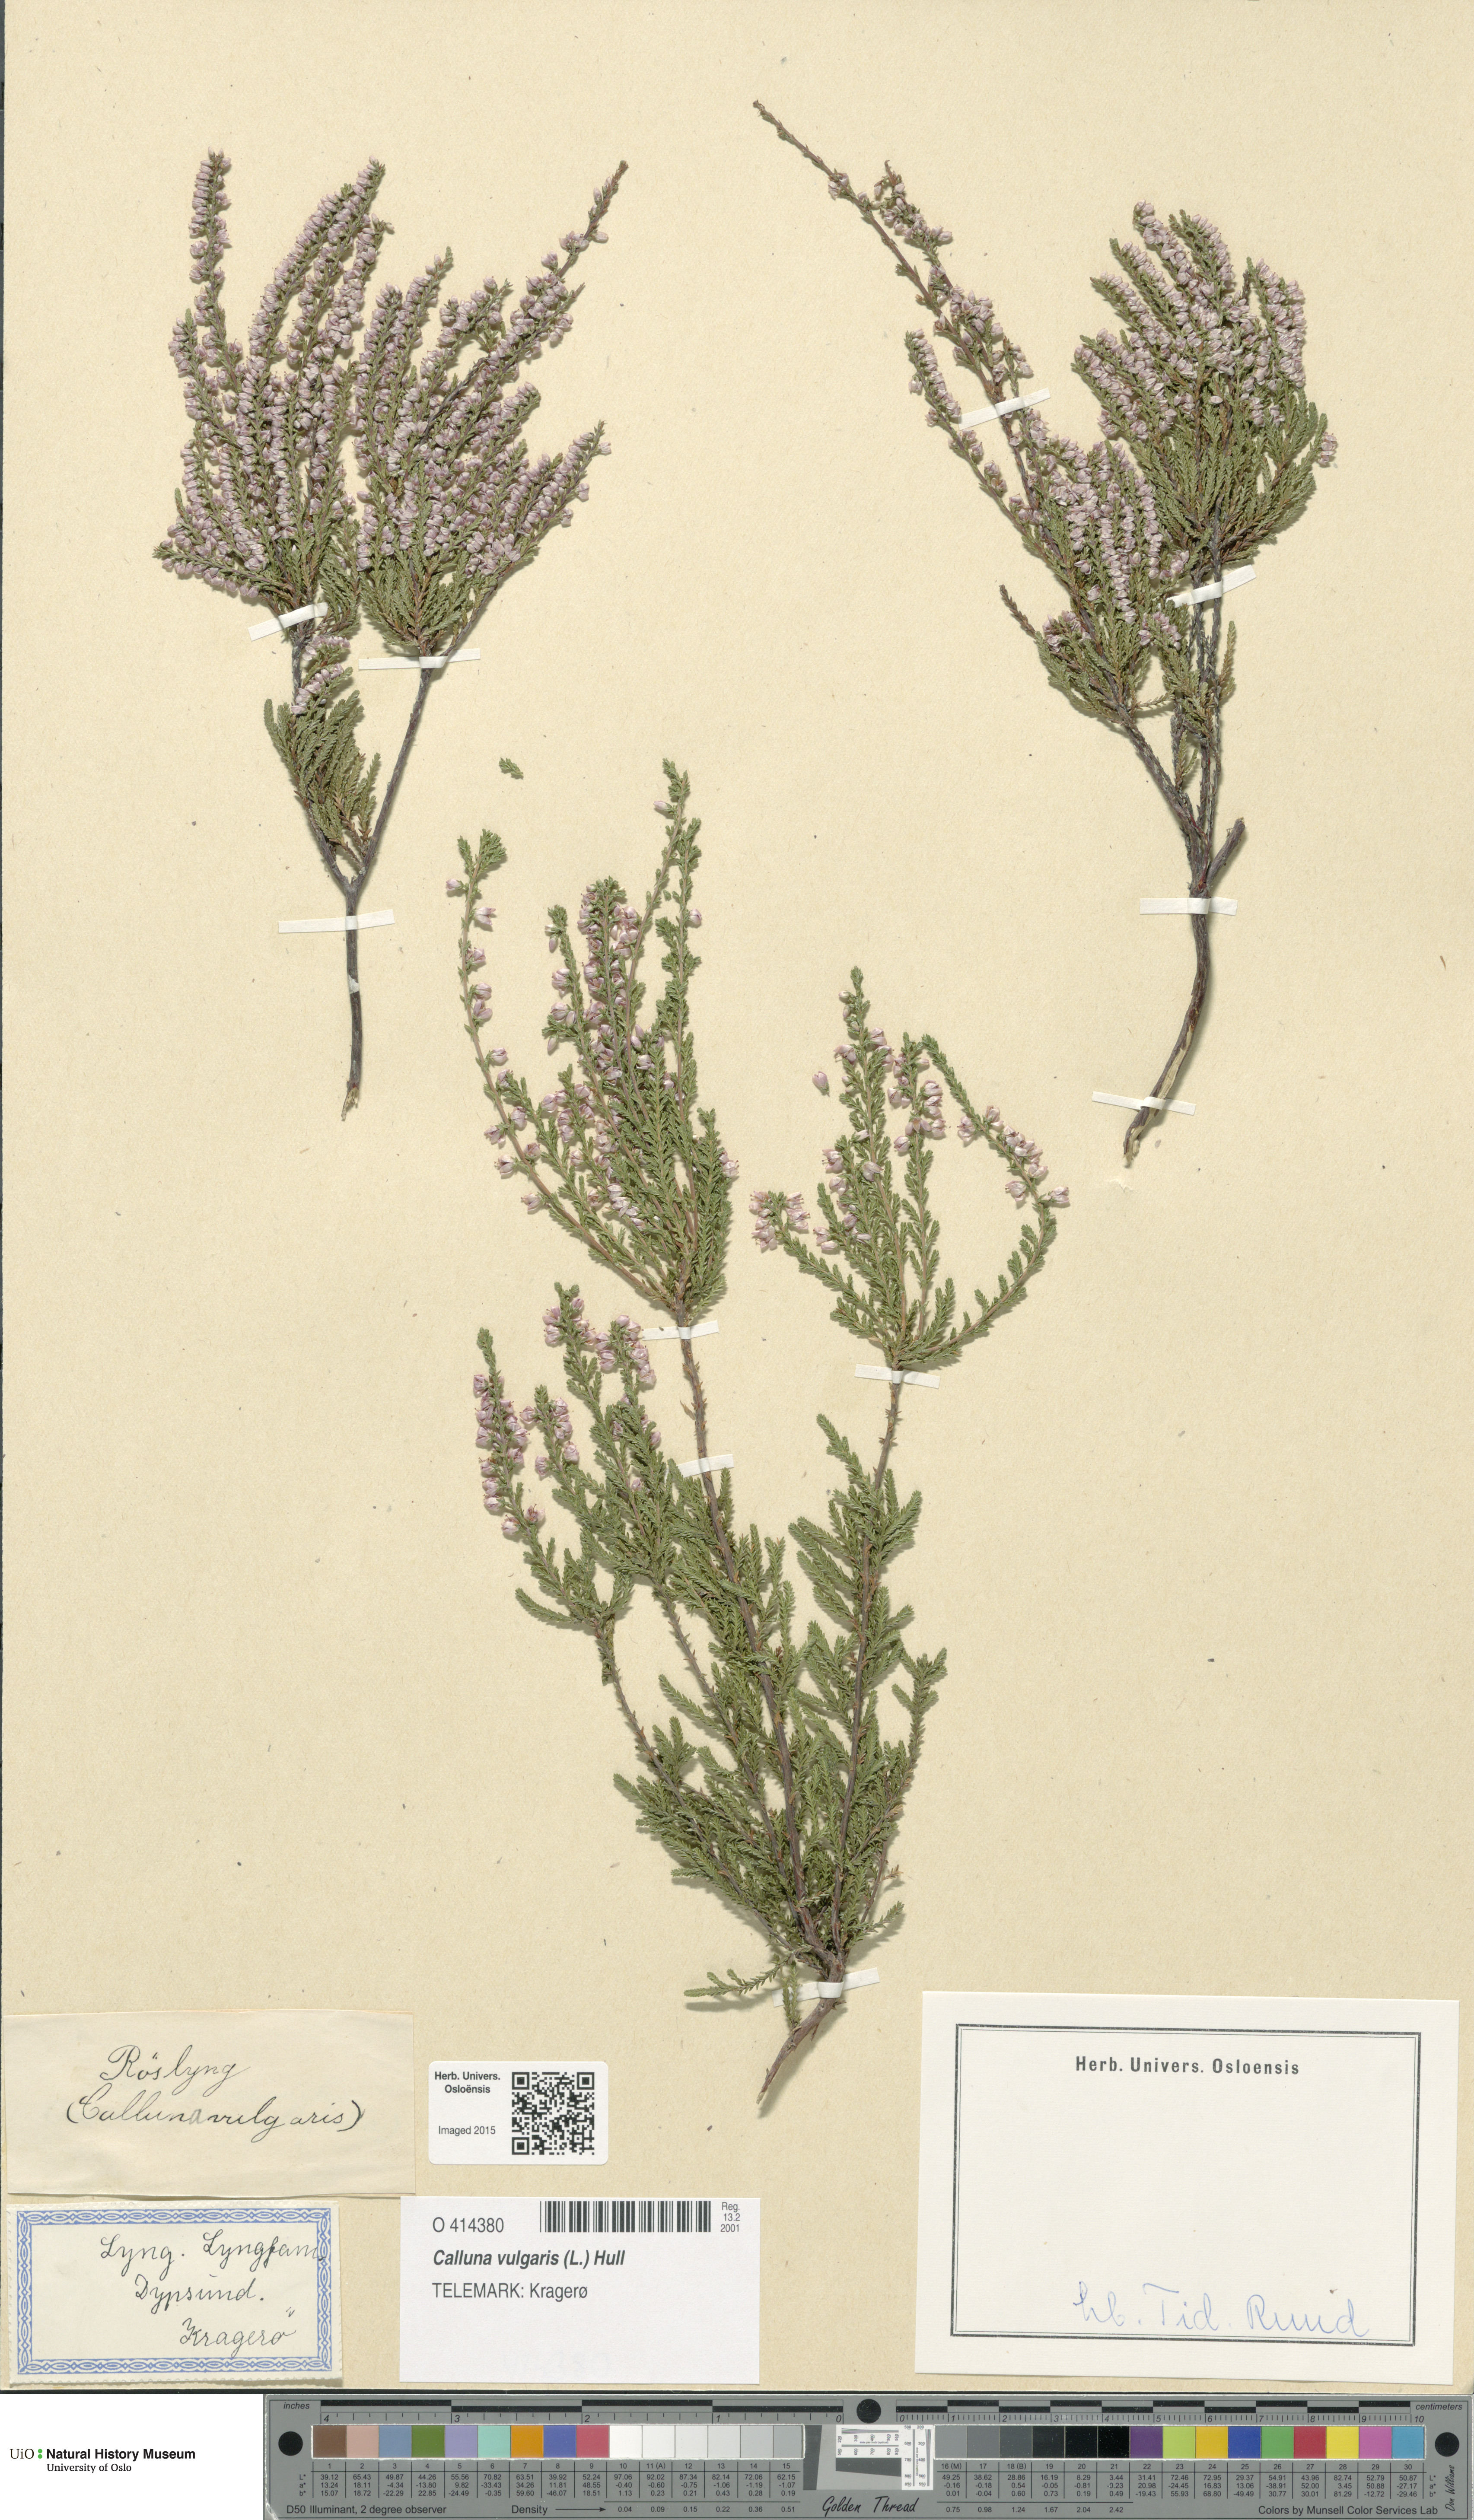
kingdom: Plantae
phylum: Tracheophyta
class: Magnoliopsida
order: Ericales
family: Ericaceae
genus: Calluna
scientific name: Calluna vulgaris
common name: Heather
